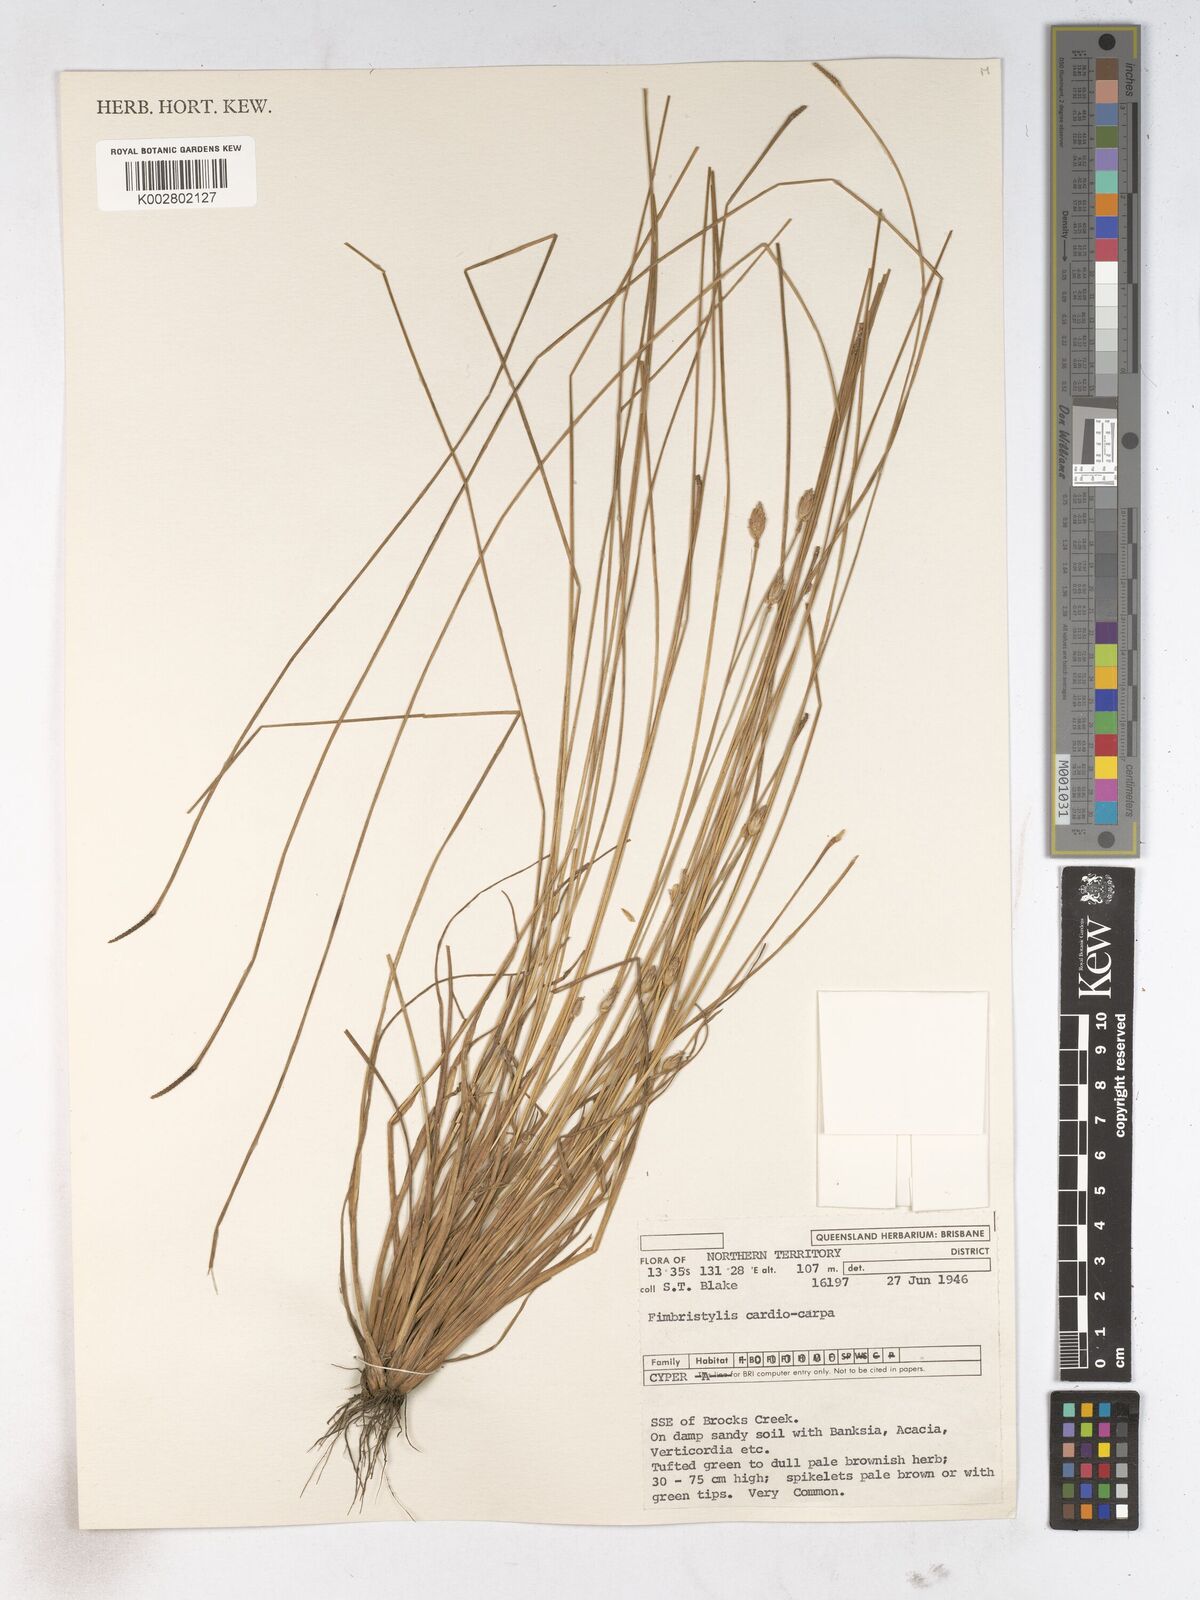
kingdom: Plantae
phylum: Tracheophyta
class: Liliopsida
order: Poales
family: Cyperaceae
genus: Fimbristylis
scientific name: Fimbristylis cardiocarpa
